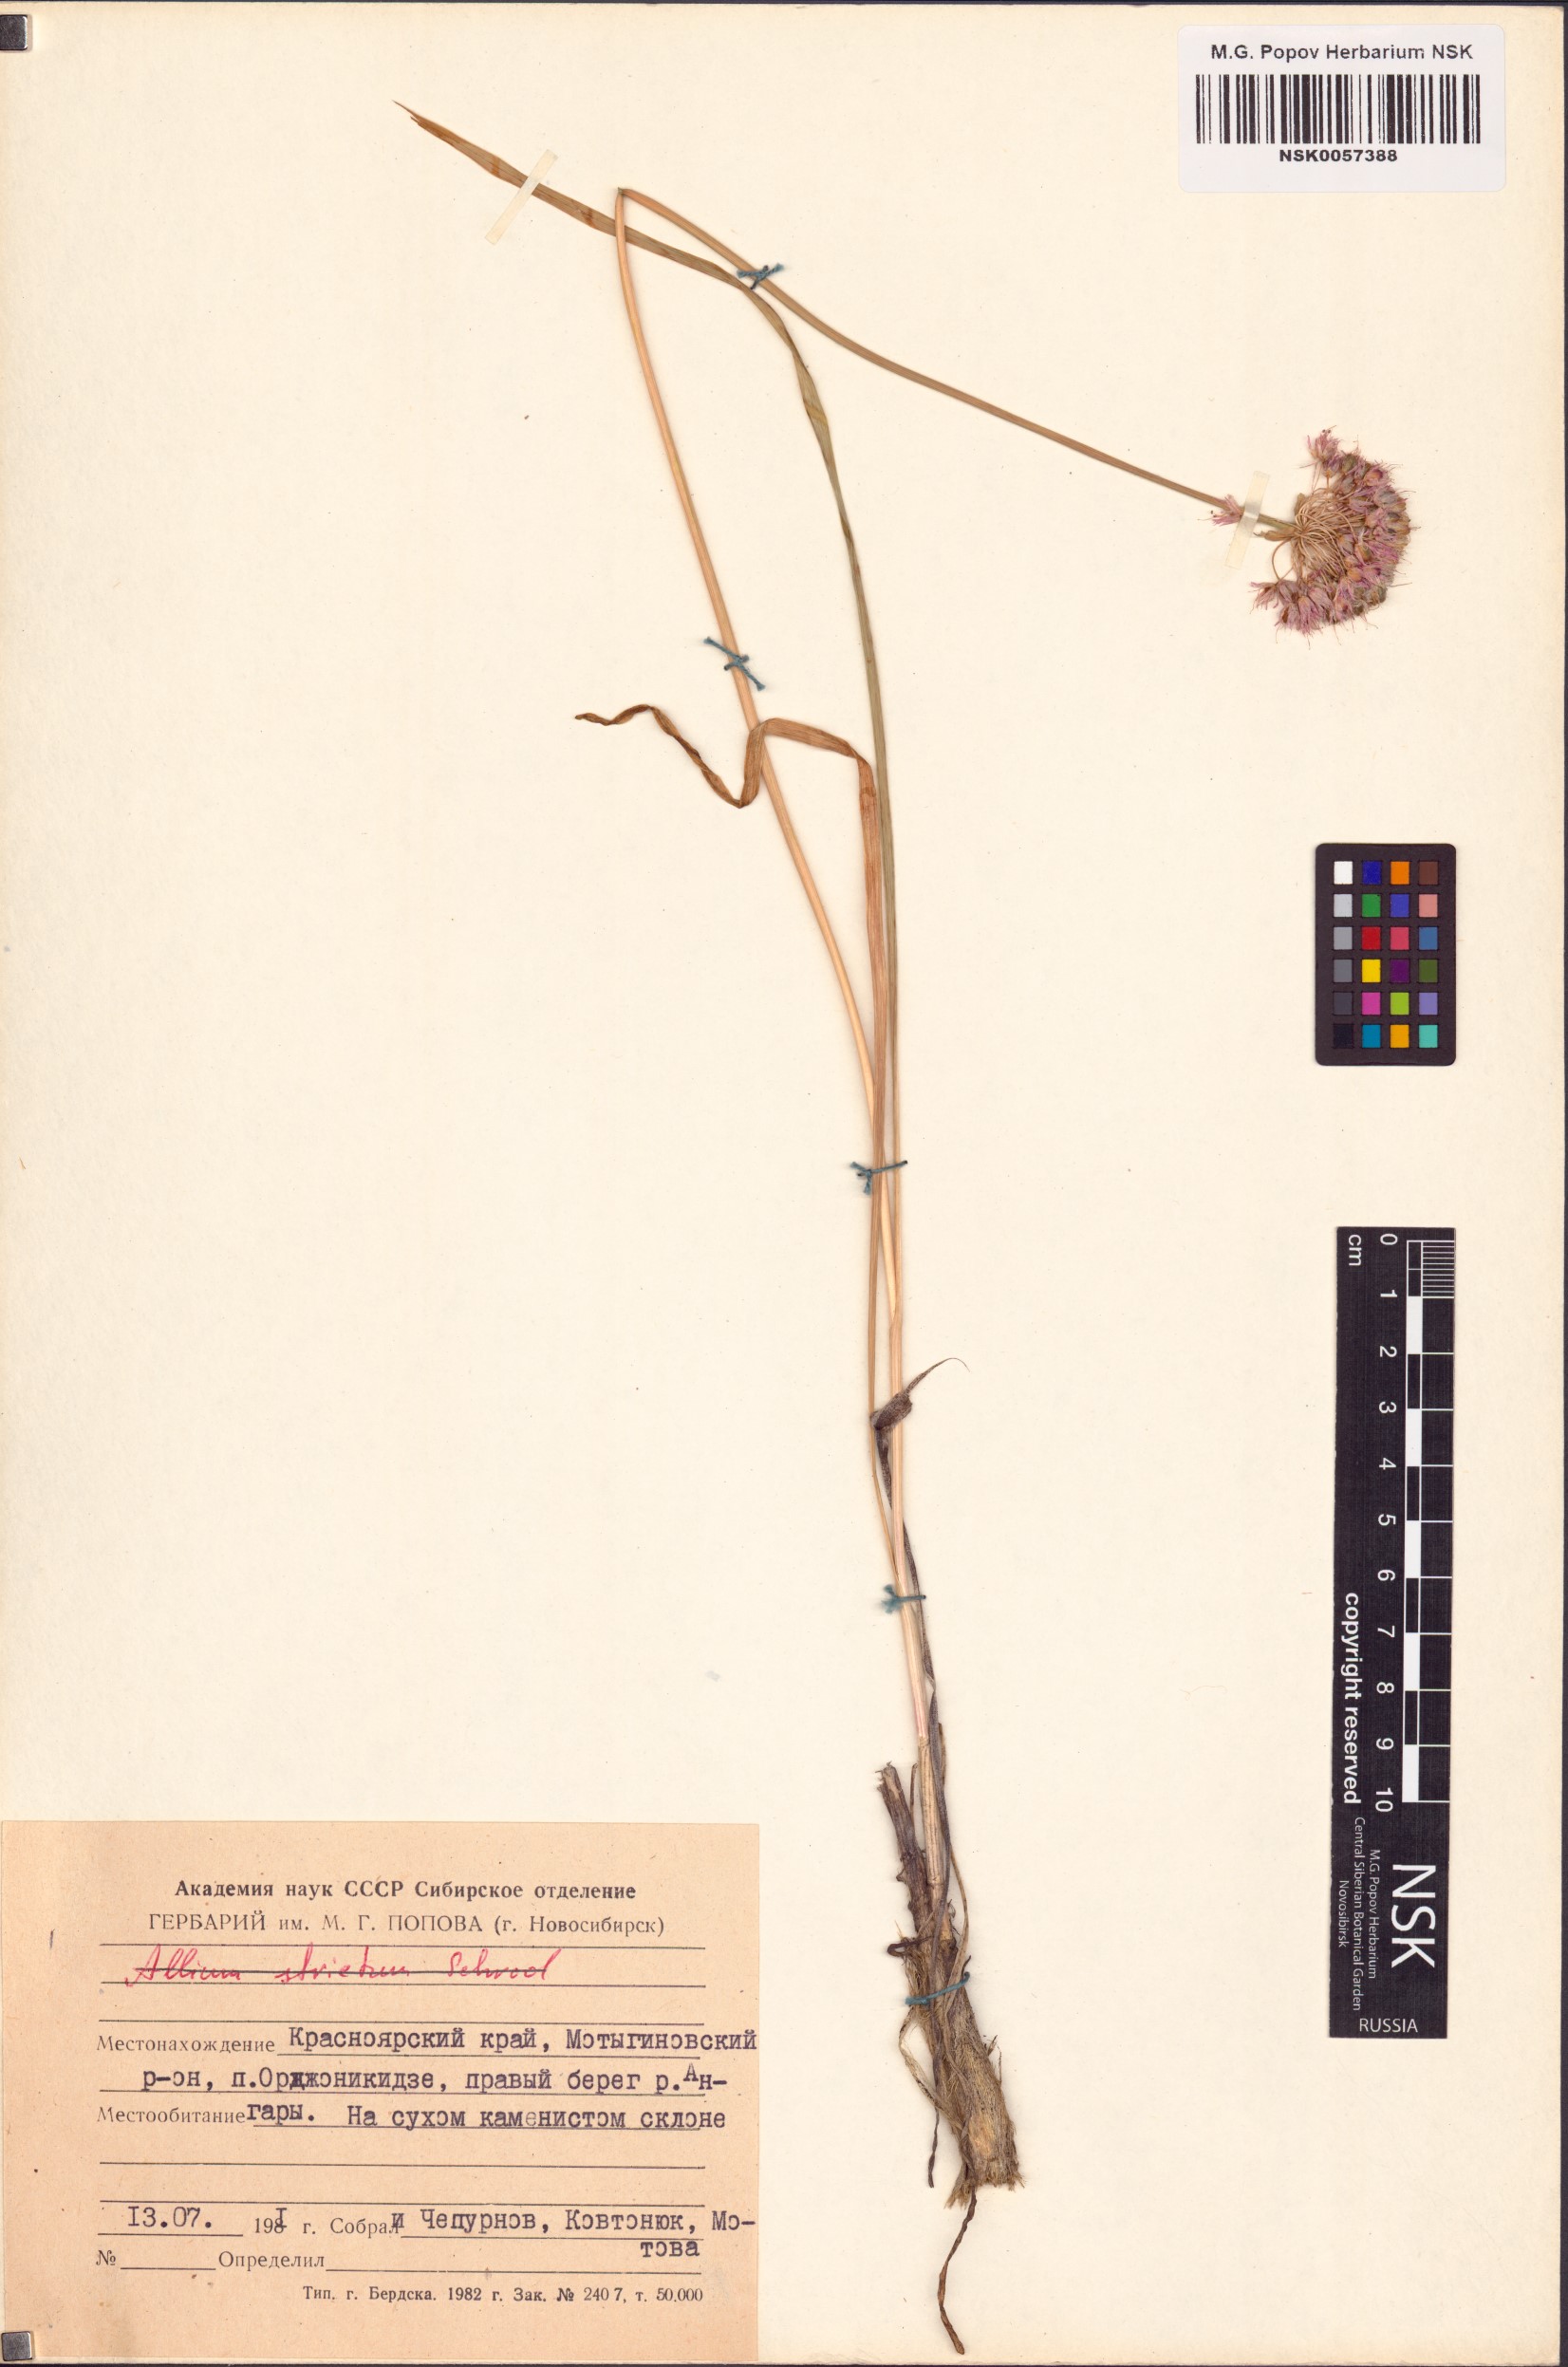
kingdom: Plantae
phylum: Tracheophyta
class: Liliopsida
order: Asparagales
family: Amaryllidaceae
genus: Allium
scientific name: Allium
